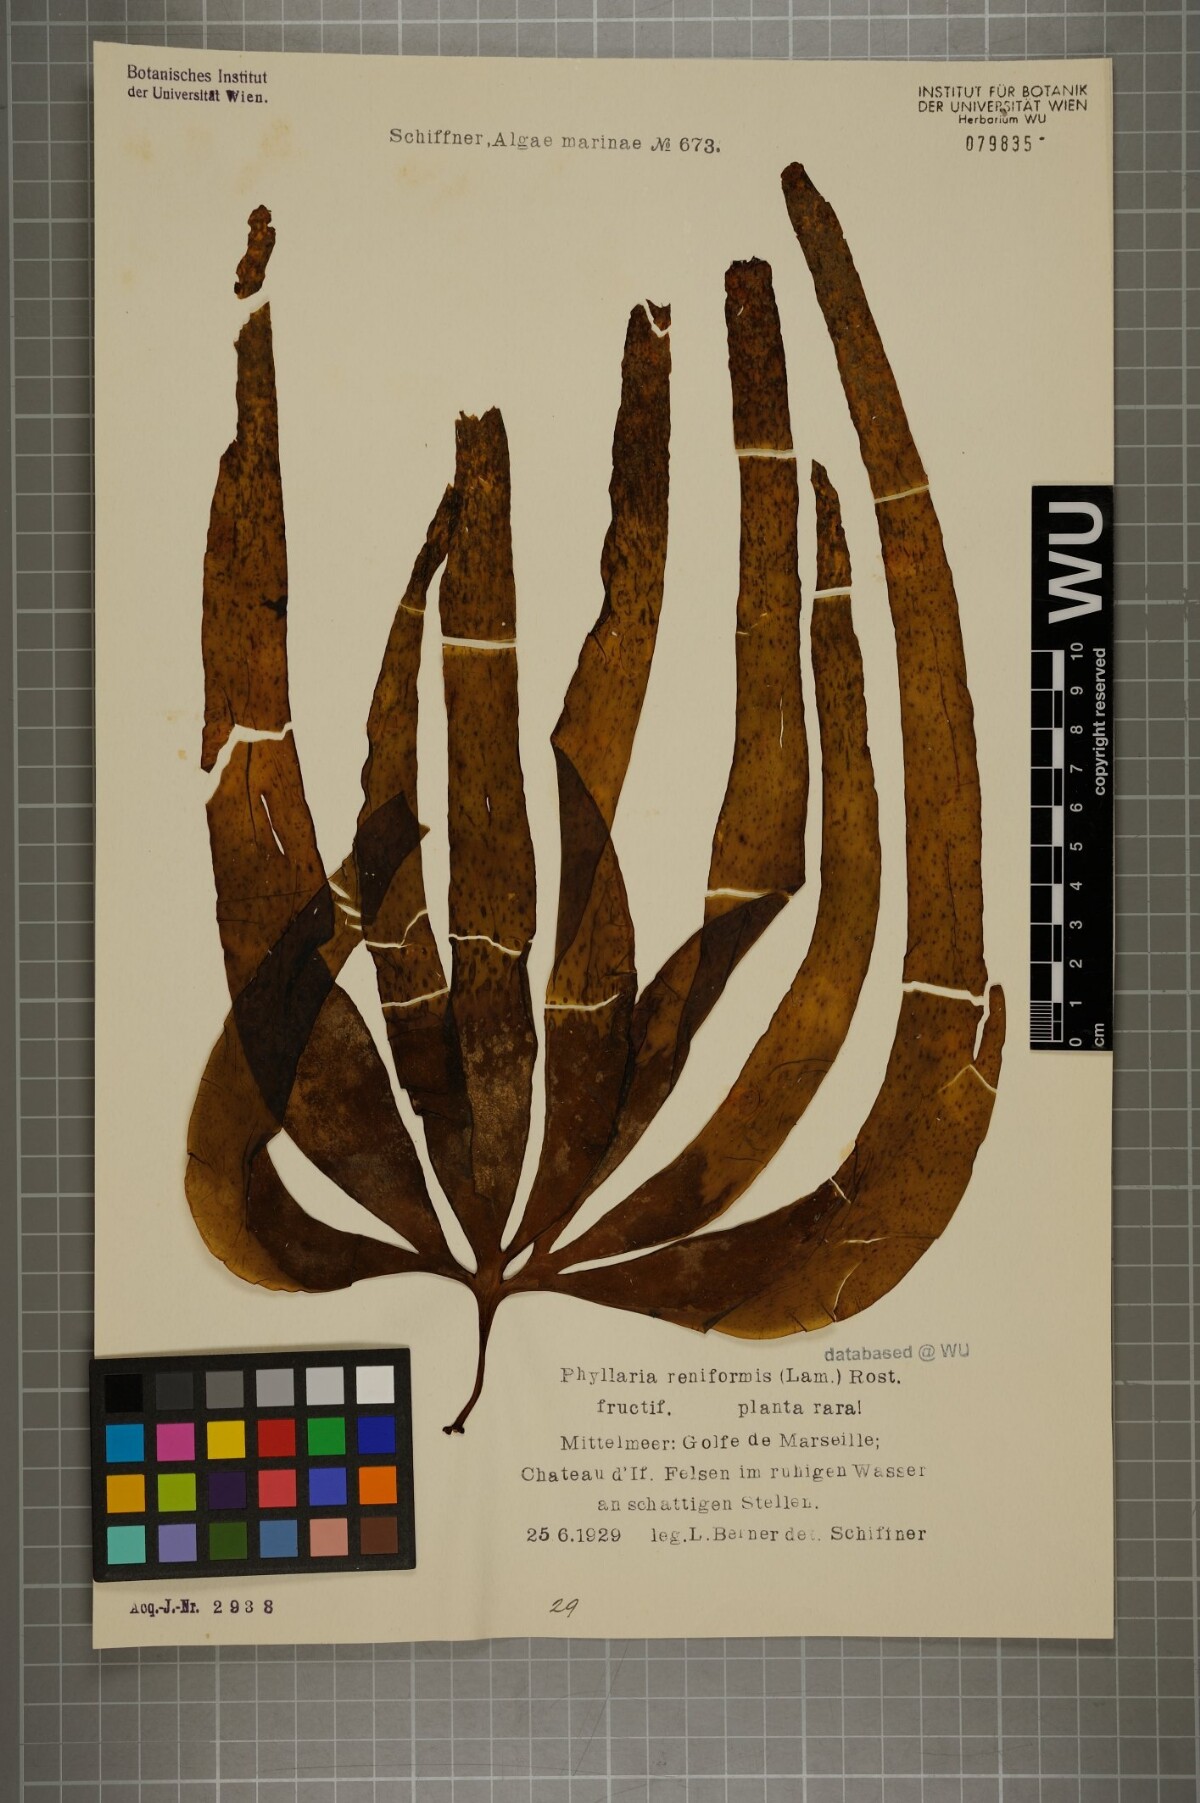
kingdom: Chromista
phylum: Ochrophyta
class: Phaeophyceae
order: Tilopteridales
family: Phyllariaceae
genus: Phyllariopsis
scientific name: Phyllariopsis brevipes
